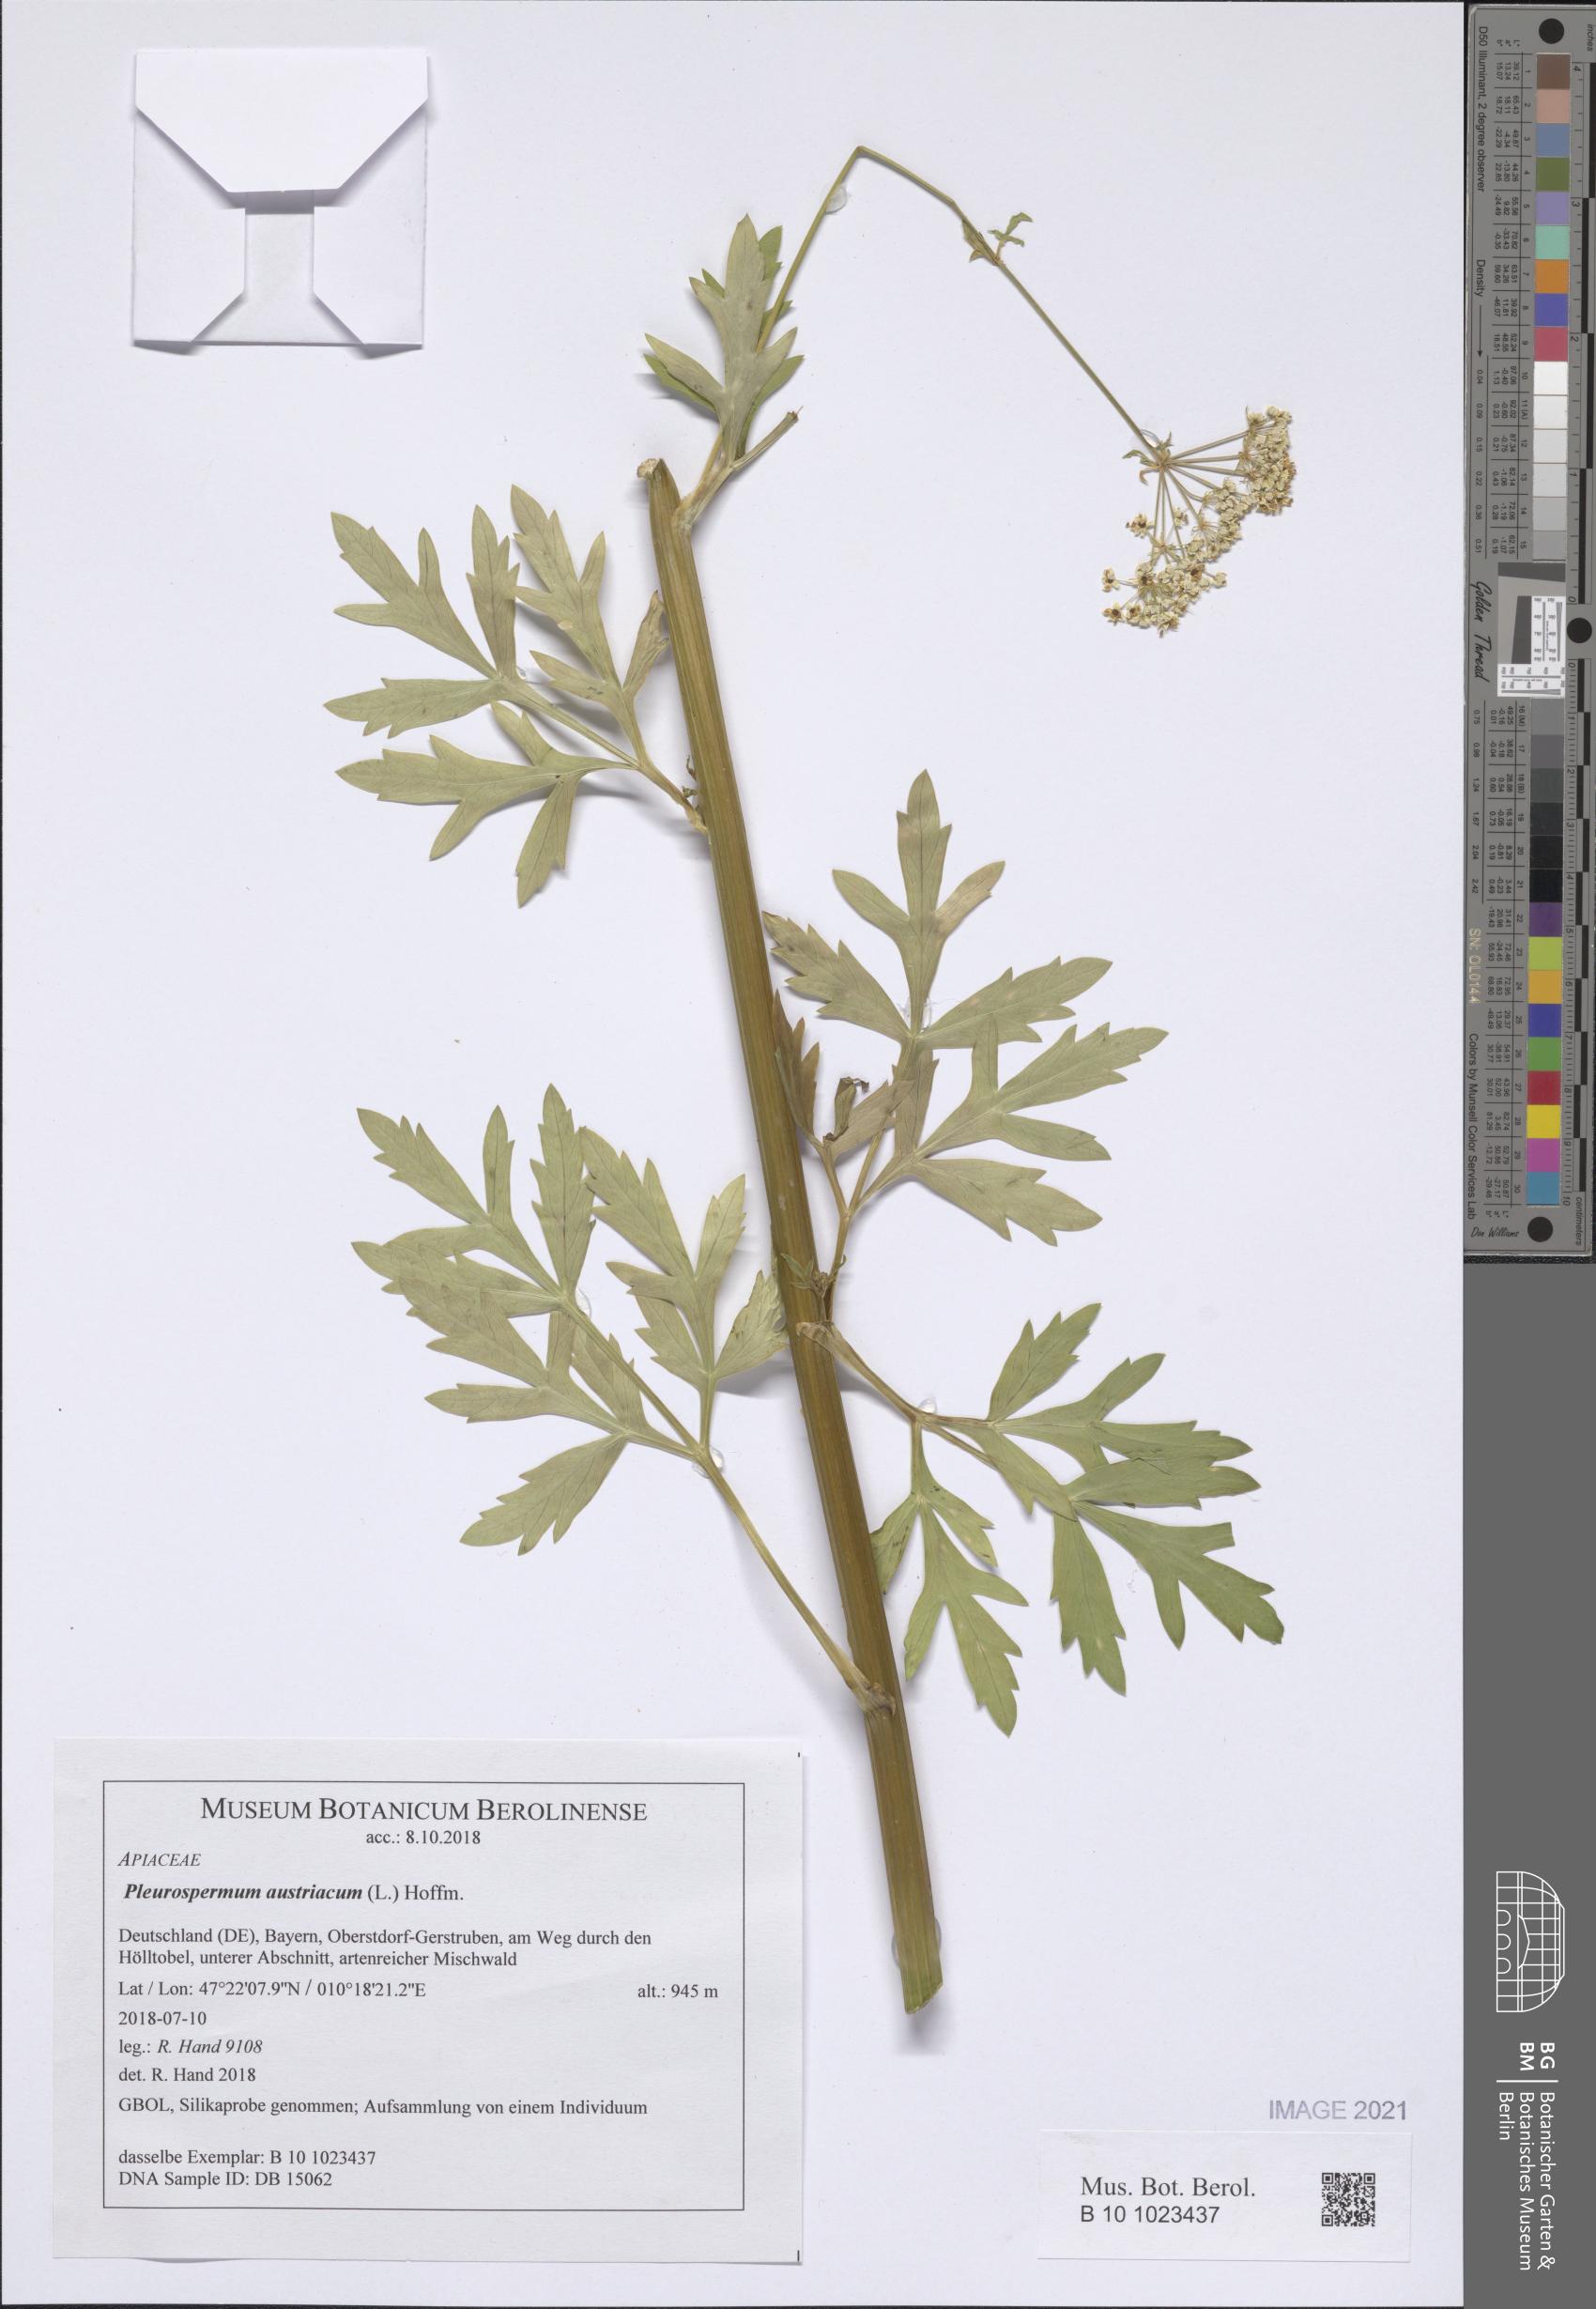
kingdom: Plantae
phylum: Tracheophyta
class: Magnoliopsida
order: Apiales
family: Apiaceae
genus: Pleurospermum
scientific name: Pleurospermum austriacum
